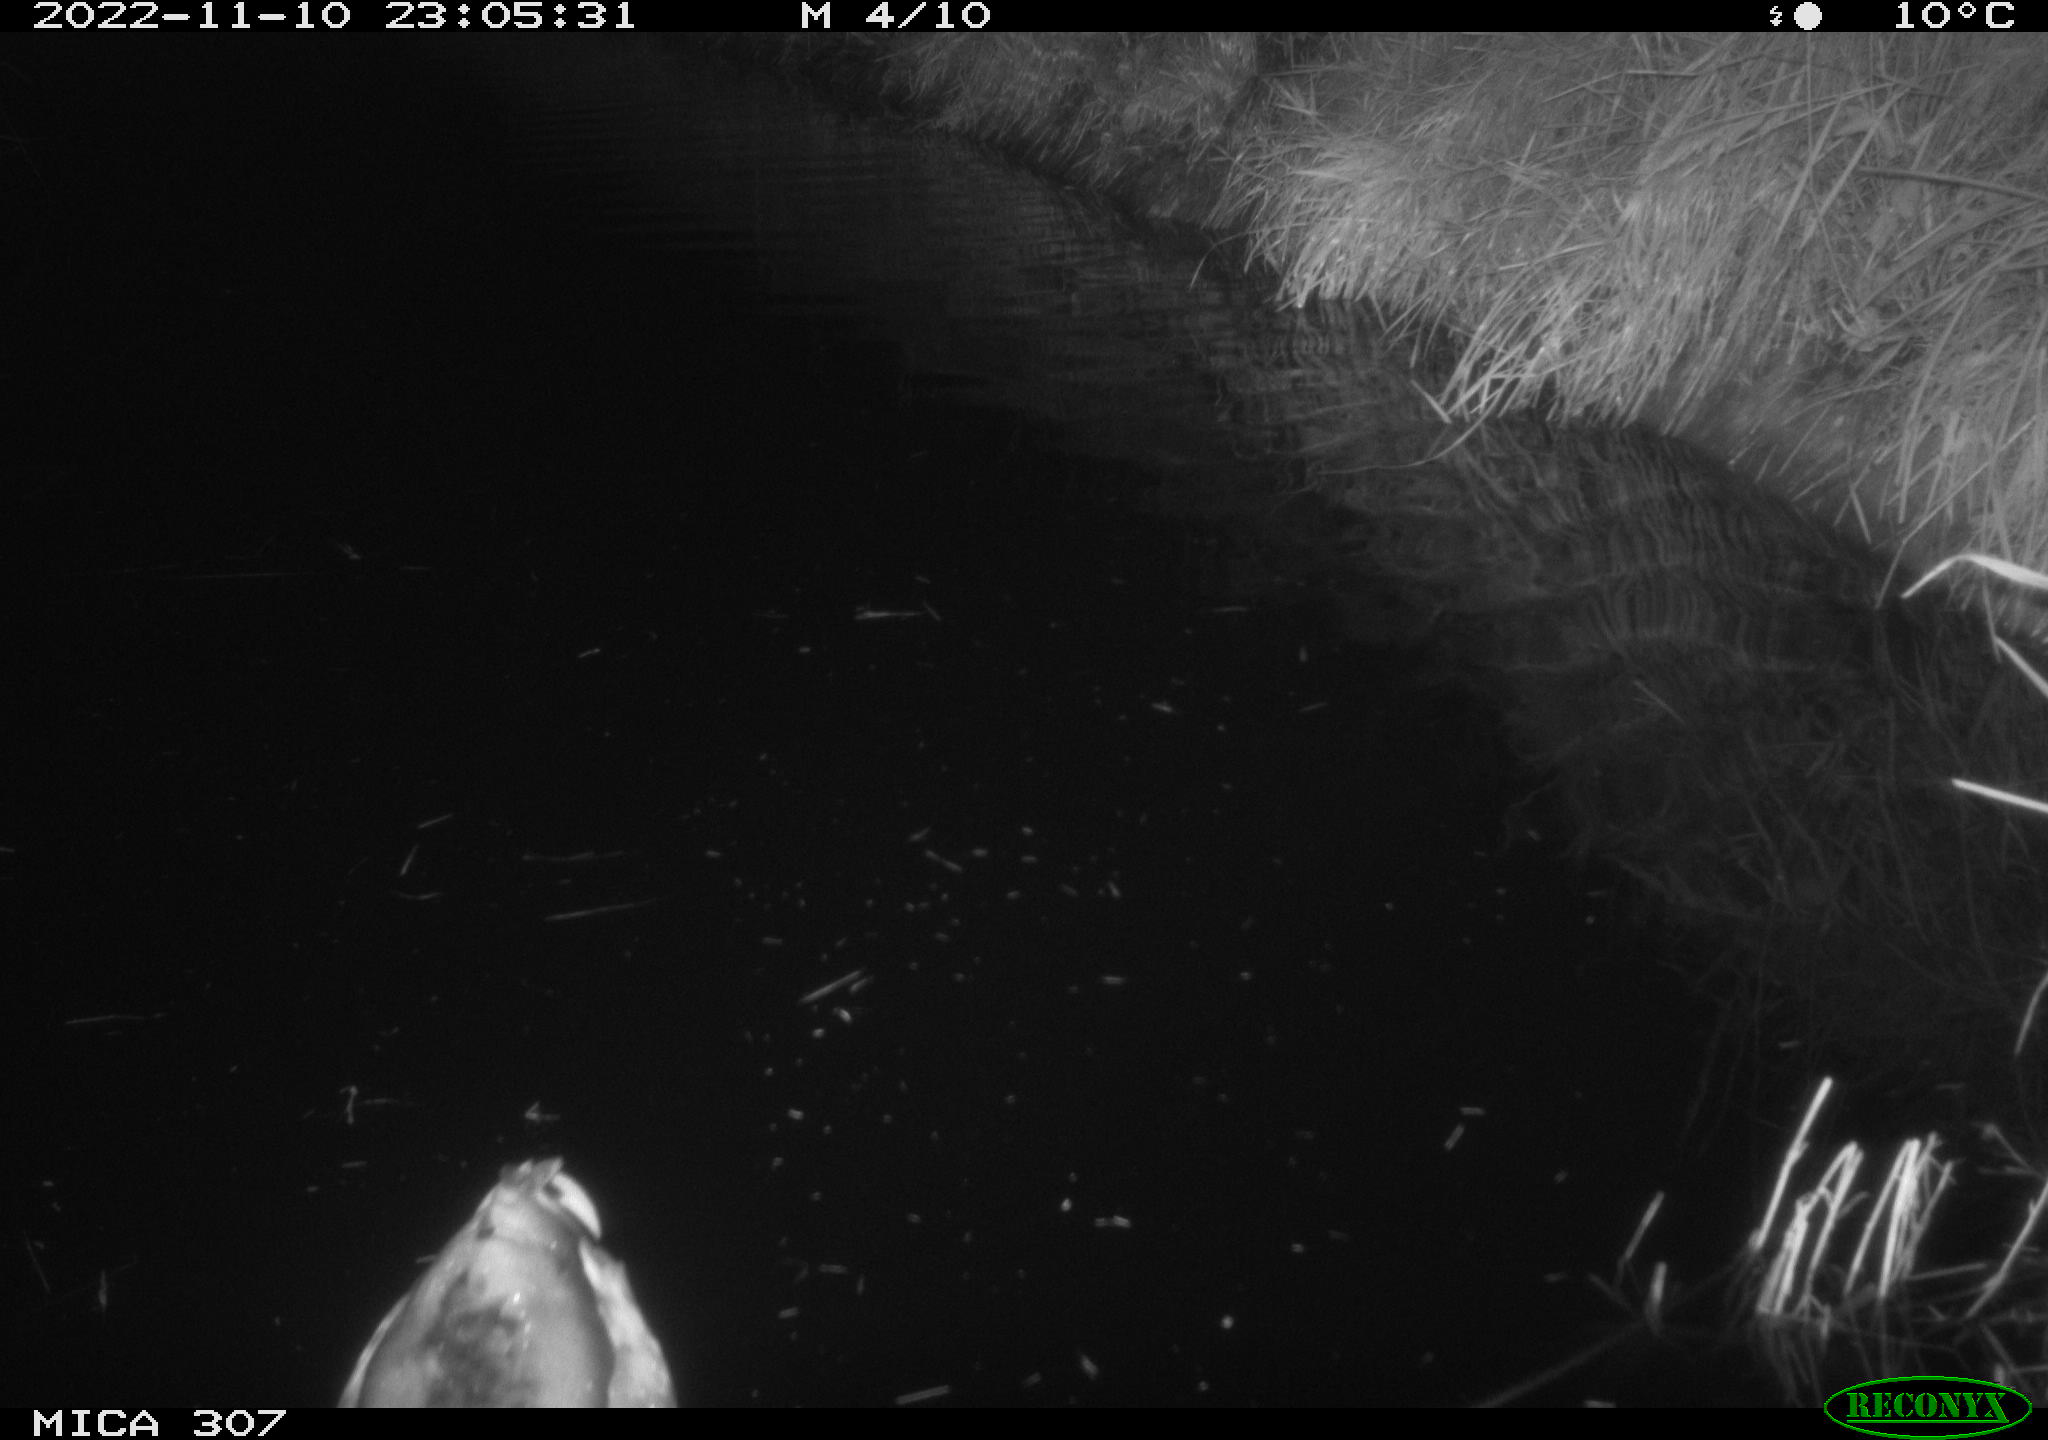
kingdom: Animalia
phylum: Chordata
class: Aves
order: Anseriformes
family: Anatidae
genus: Anas
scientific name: Anas
